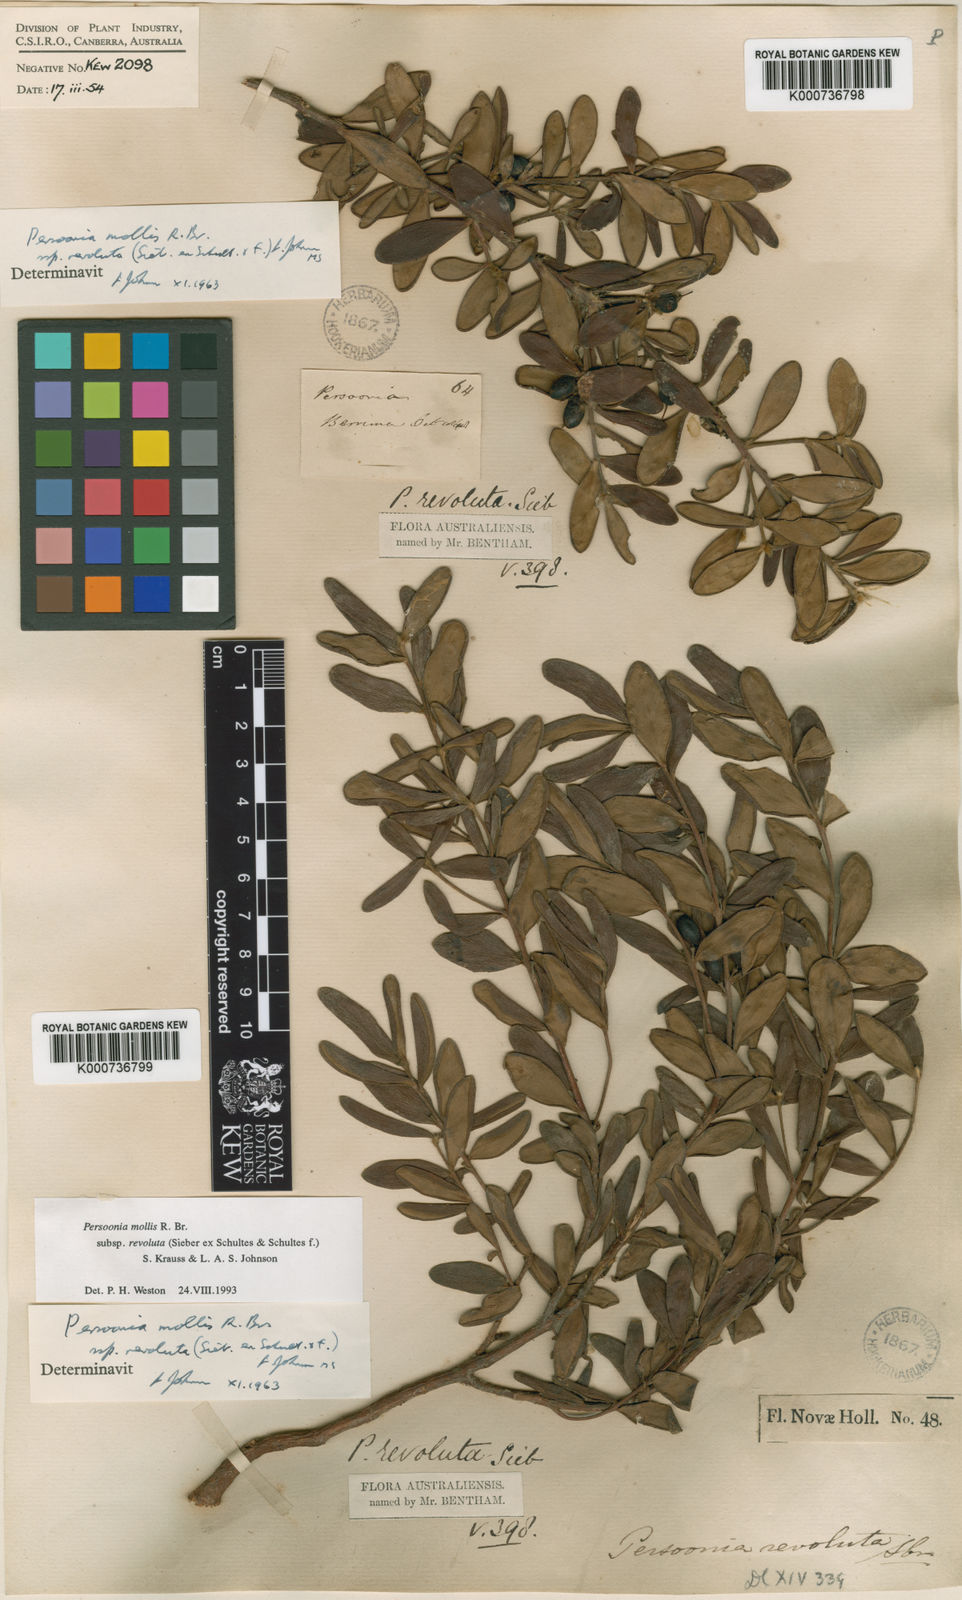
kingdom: Plantae
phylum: Tracheophyta
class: Magnoliopsida
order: Proteales
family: Proteaceae
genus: Persoonia
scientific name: Persoonia mollis
